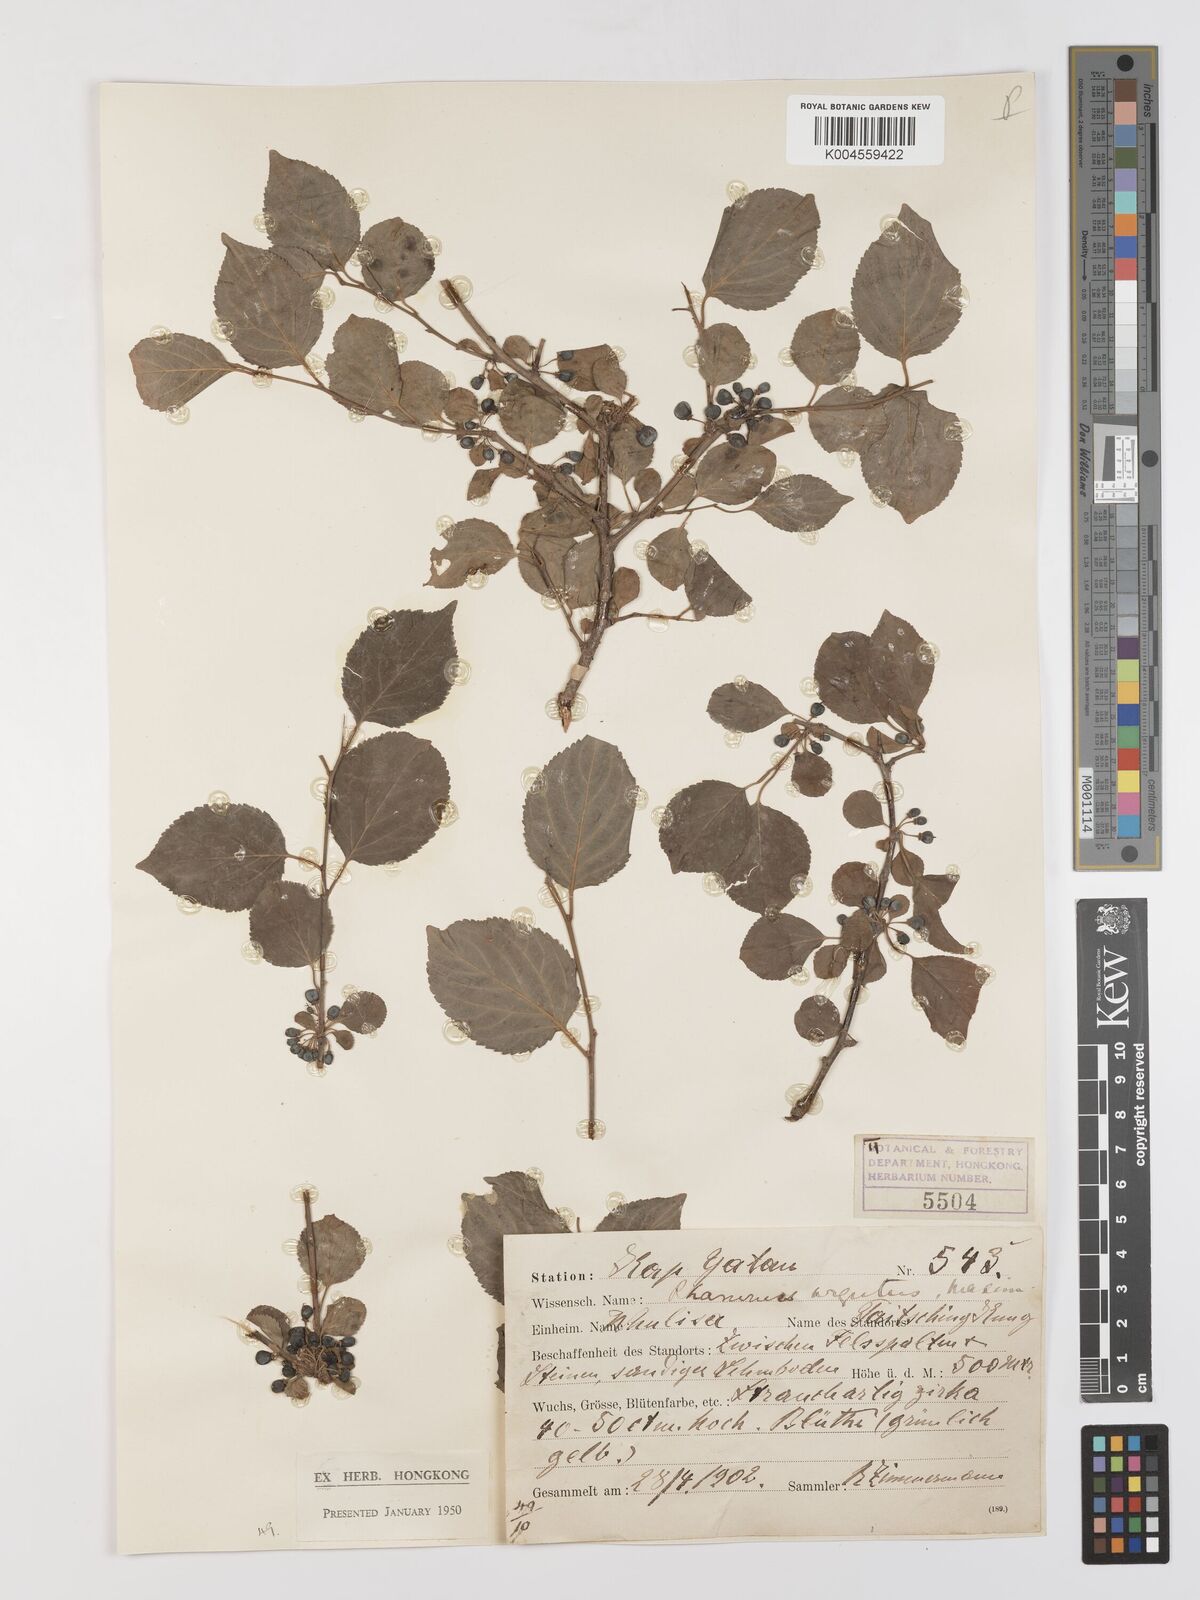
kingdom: Plantae
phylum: Tracheophyta
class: Magnoliopsida
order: Rosales
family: Rhamnaceae
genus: Rhamnus
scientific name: Rhamnus arguta
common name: Sharp-tooth buckthorn
